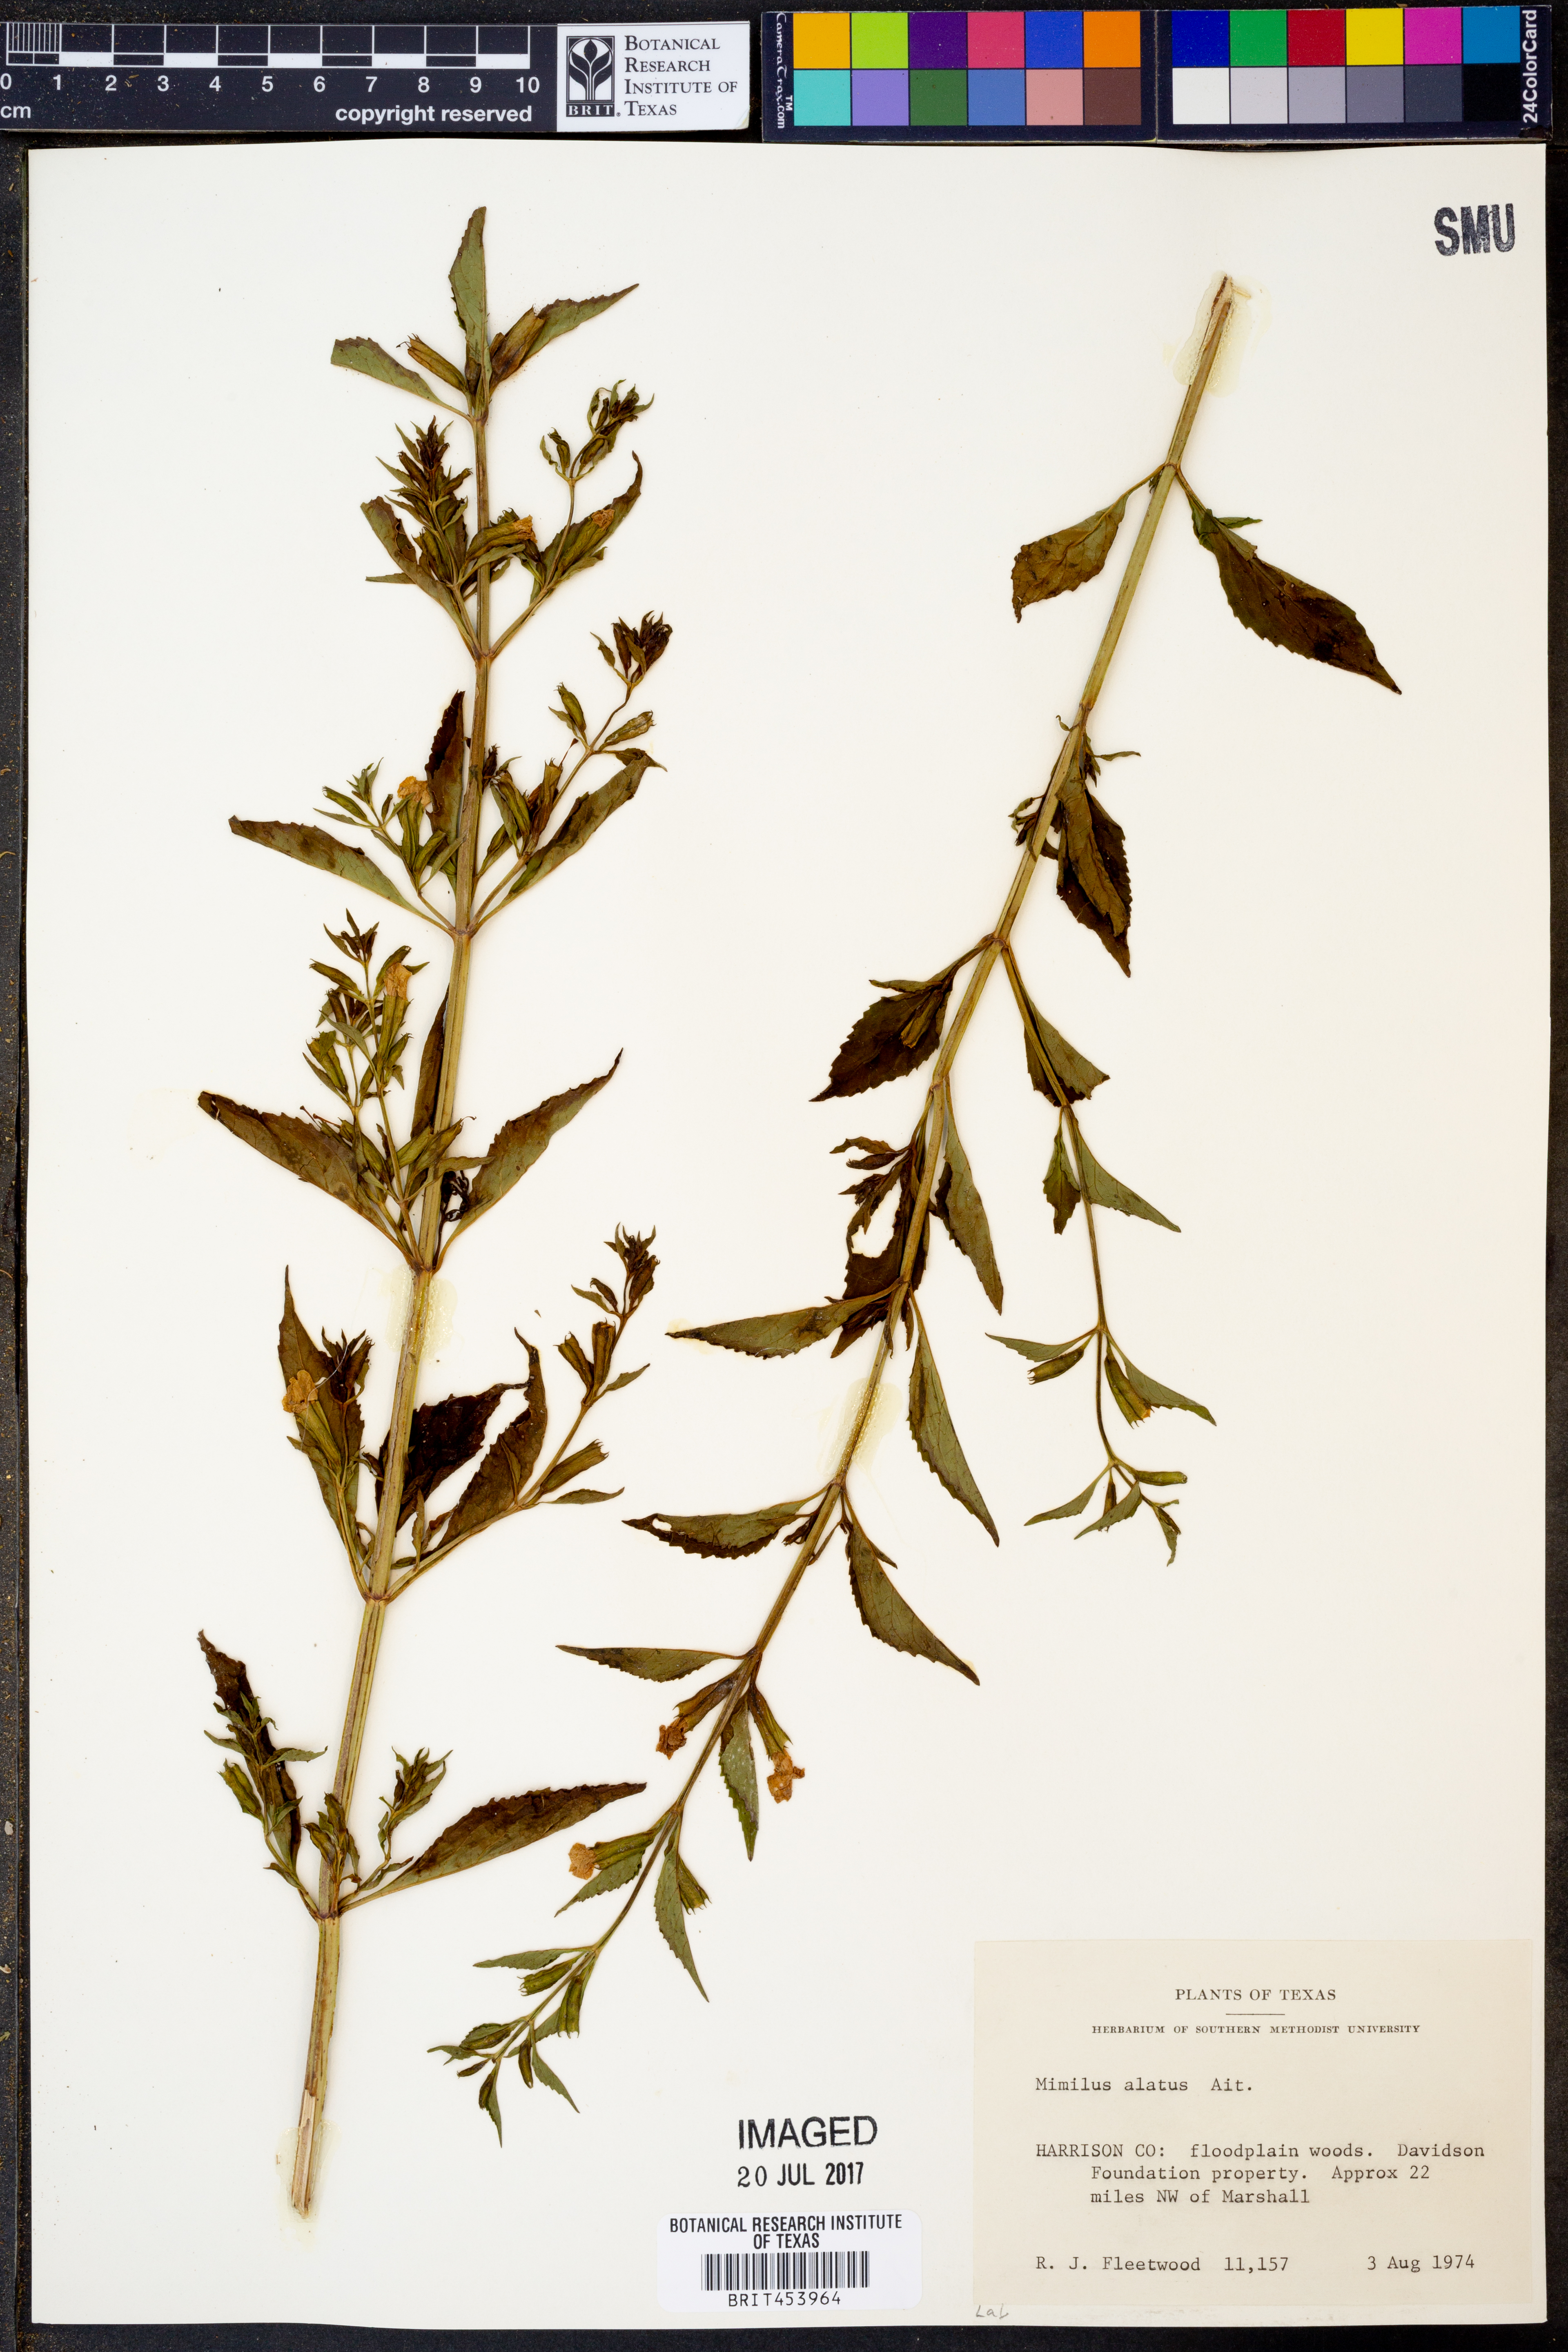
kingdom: Plantae
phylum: Tracheophyta
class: Magnoliopsida
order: Lamiales
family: Phrymaceae
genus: Mimulus
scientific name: Mimulus alatus
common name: Sharp-wing monkey-flower
